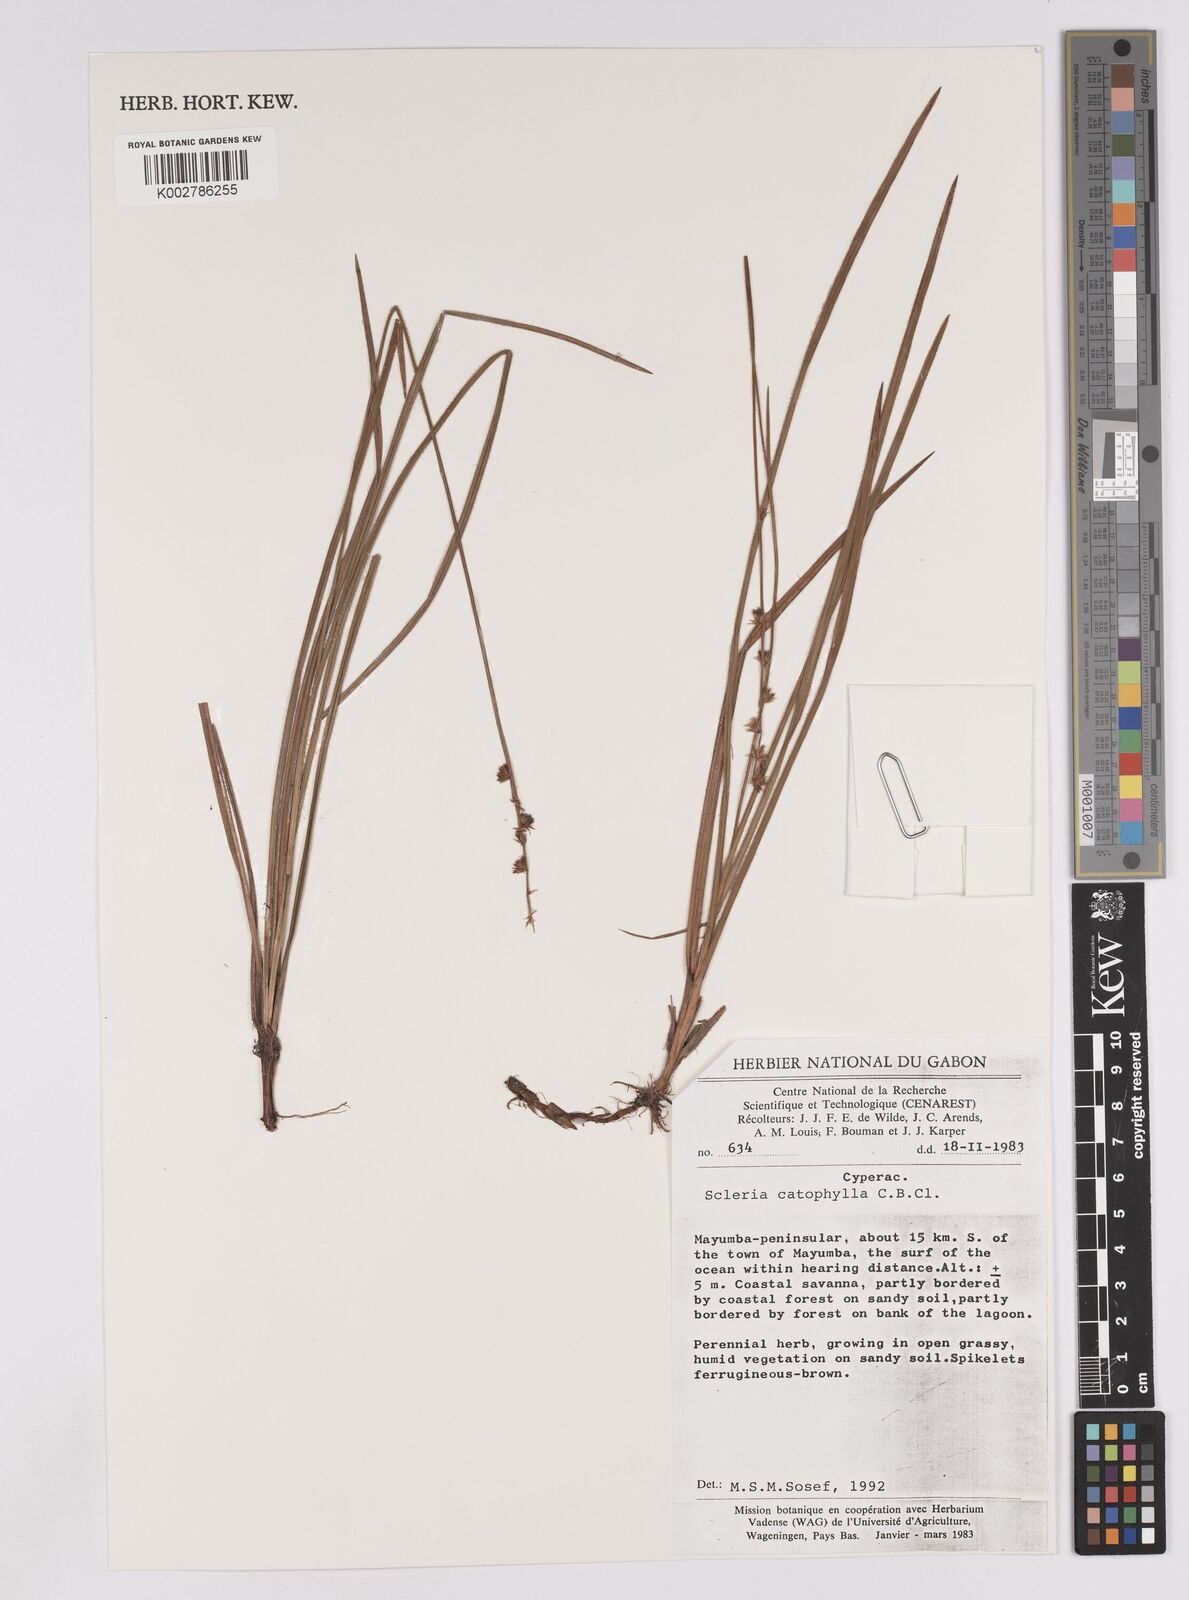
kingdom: Plantae
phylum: Tracheophyta
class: Liliopsida
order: Poales
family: Cyperaceae
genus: Scleria
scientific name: Scleria catophylla
